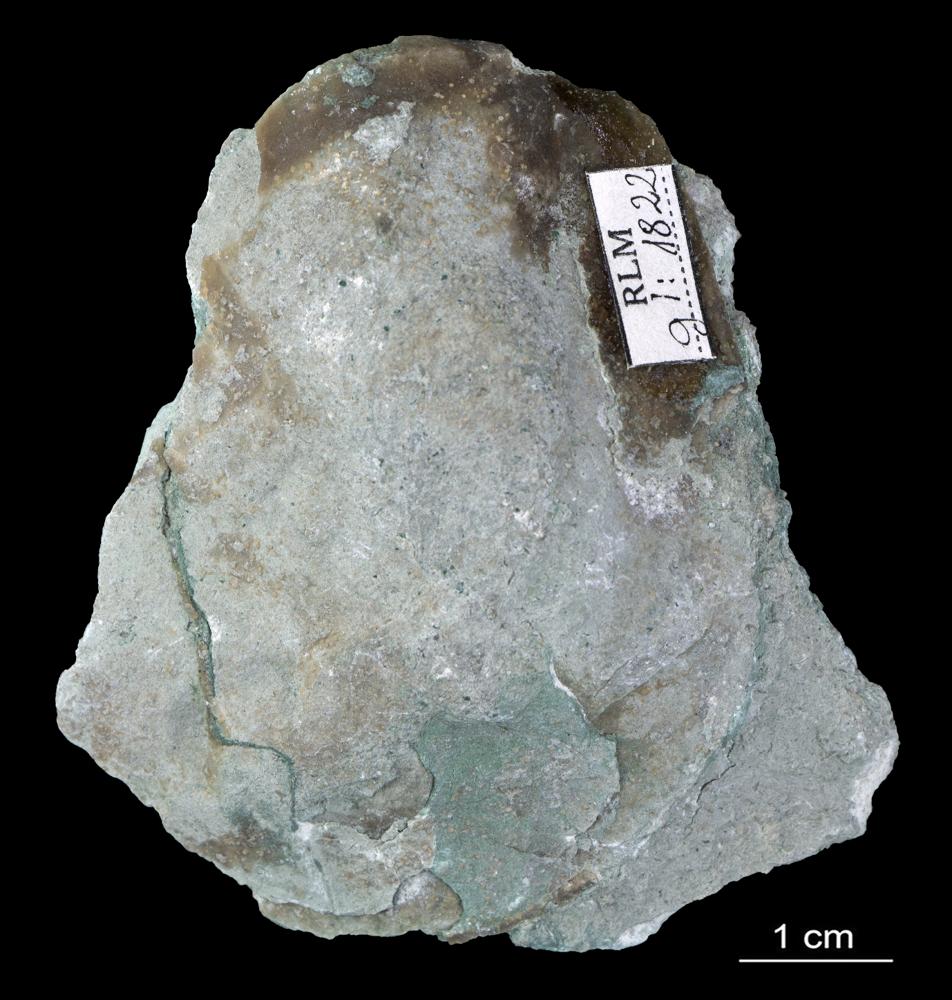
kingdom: Animalia
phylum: Brachiopoda
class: Rhynchonellata
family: Paurorthidae
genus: Paurorthis
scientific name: Paurorthis parva
